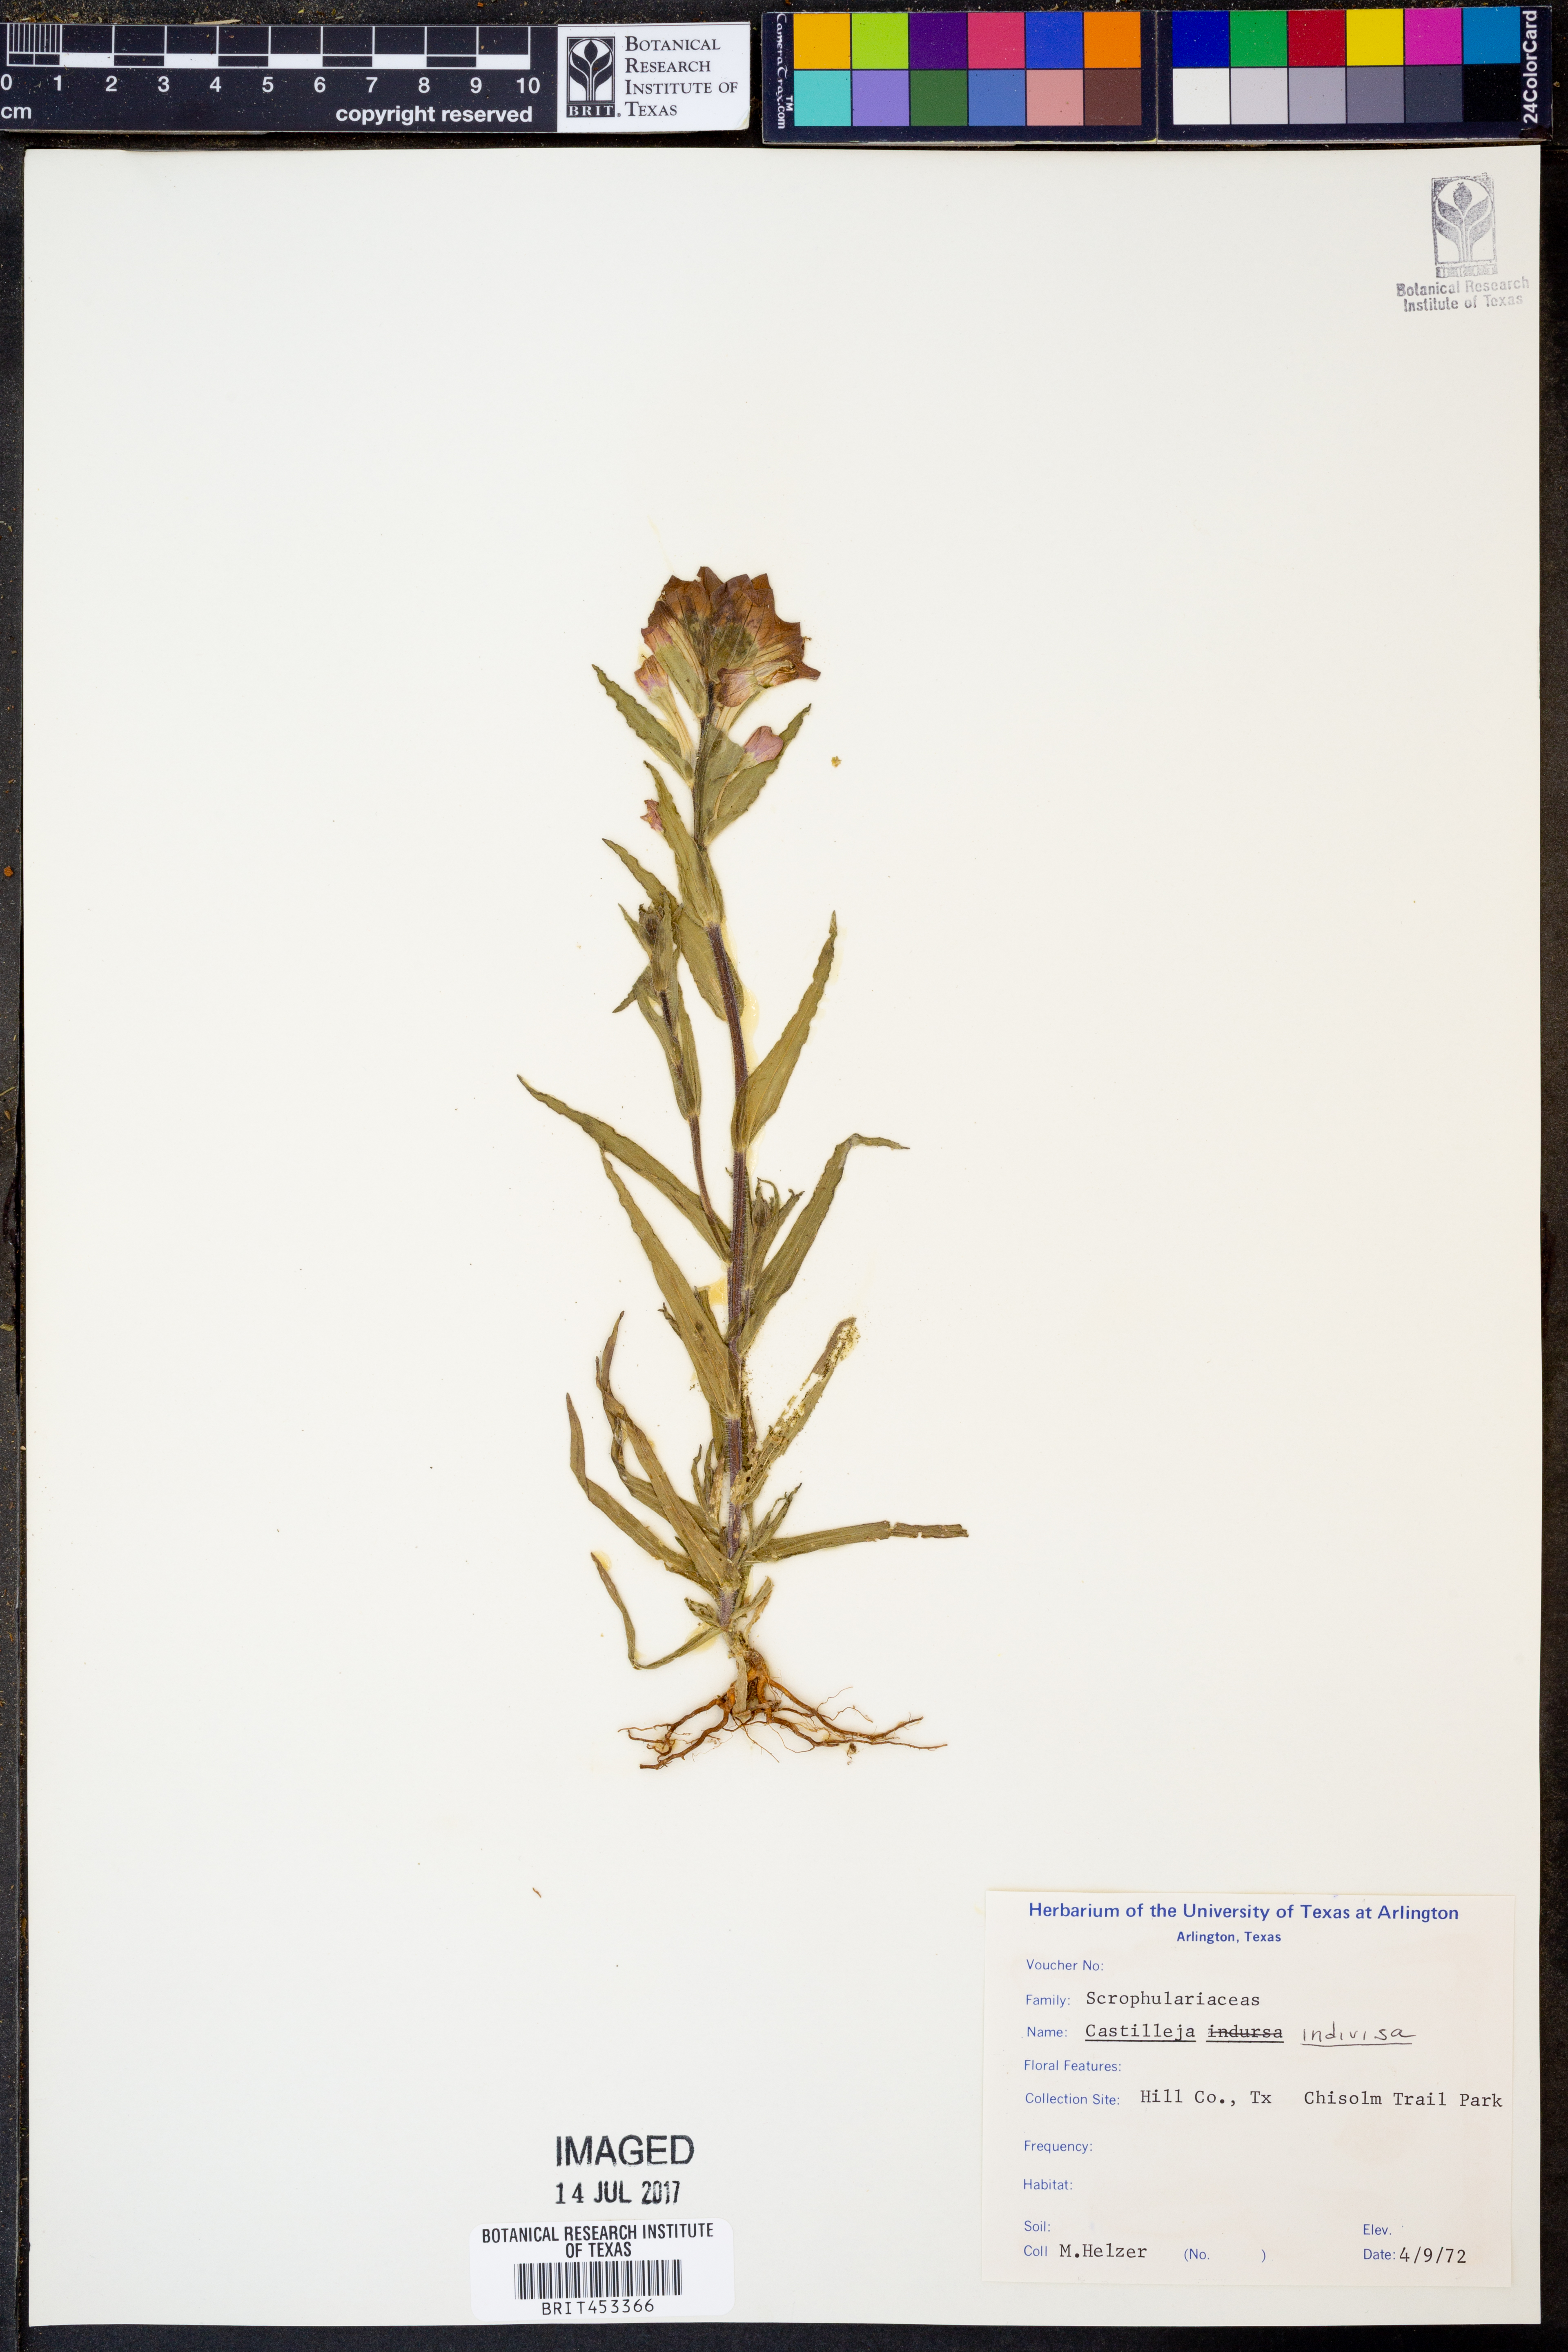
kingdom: Plantae
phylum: Tracheophyta
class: Magnoliopsida
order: Lamiales
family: Orobanchaceae
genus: Castilleja
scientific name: Castilleja indivisa
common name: Texas paintbrush
